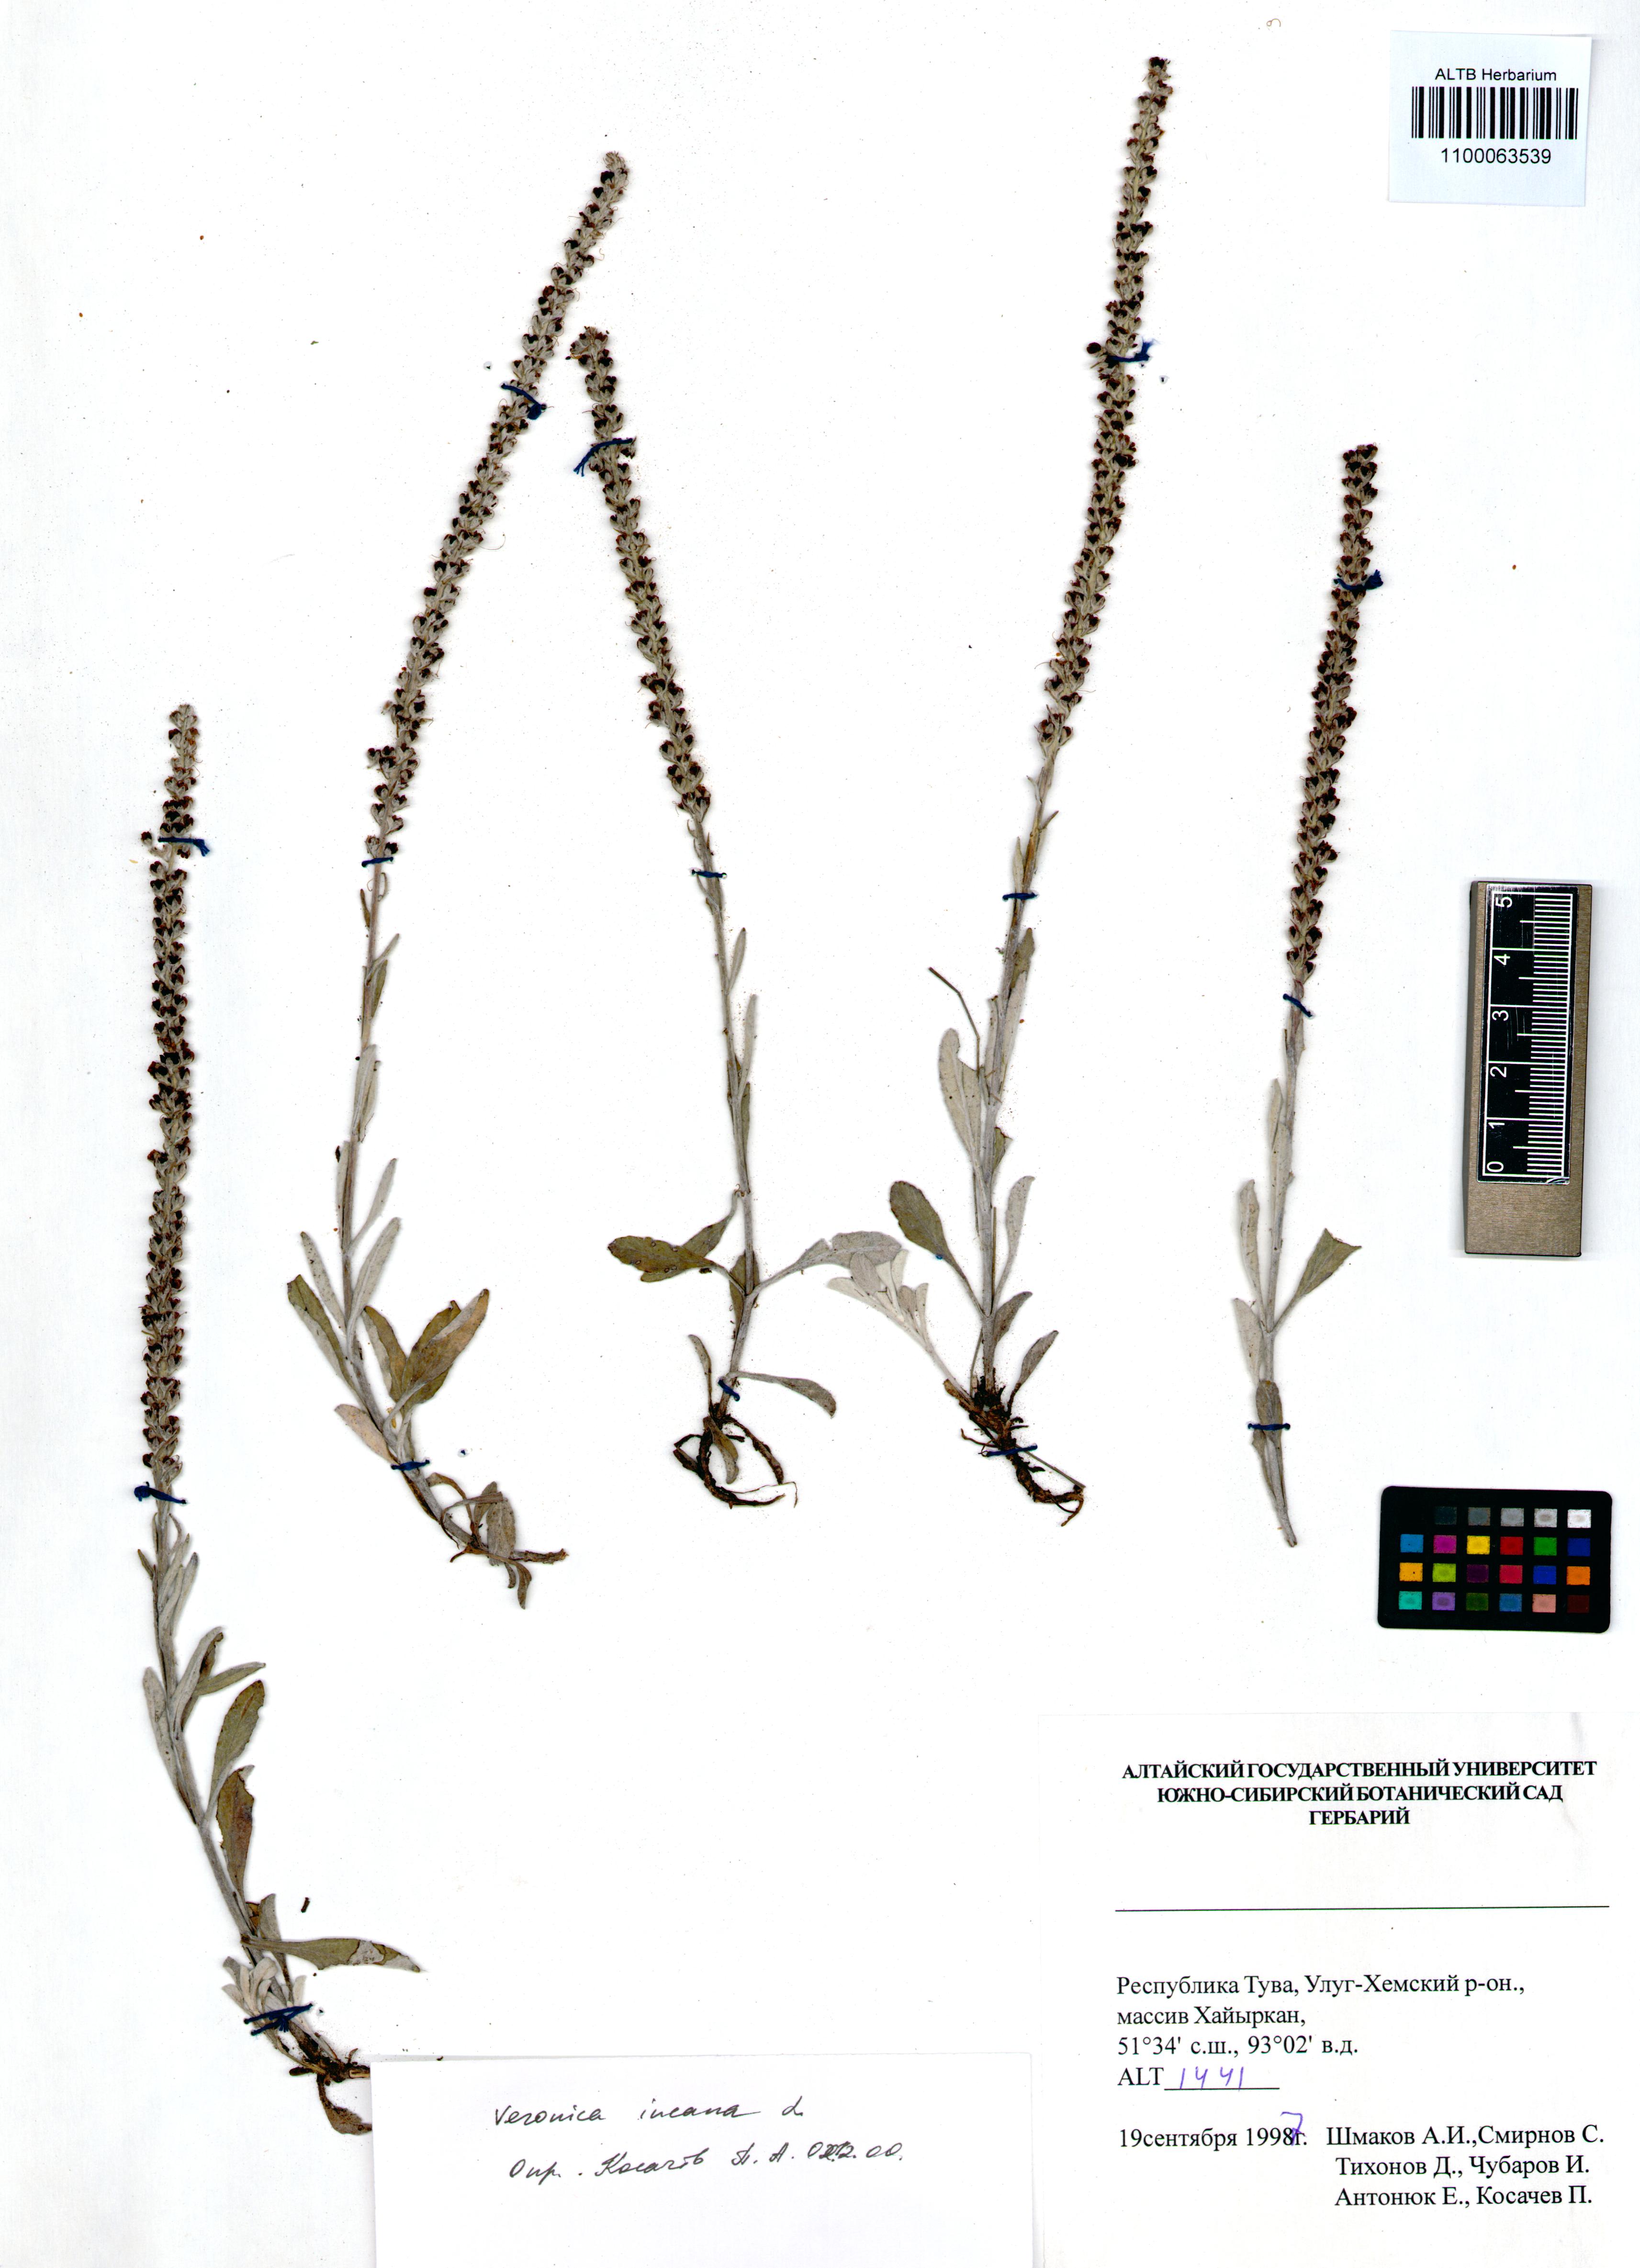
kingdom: Plantae
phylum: Tracheophyta
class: Magnoliopsida
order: Lamiales
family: Plantaginaceae
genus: Veronica
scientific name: Veronica incana
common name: Silver speedwell
